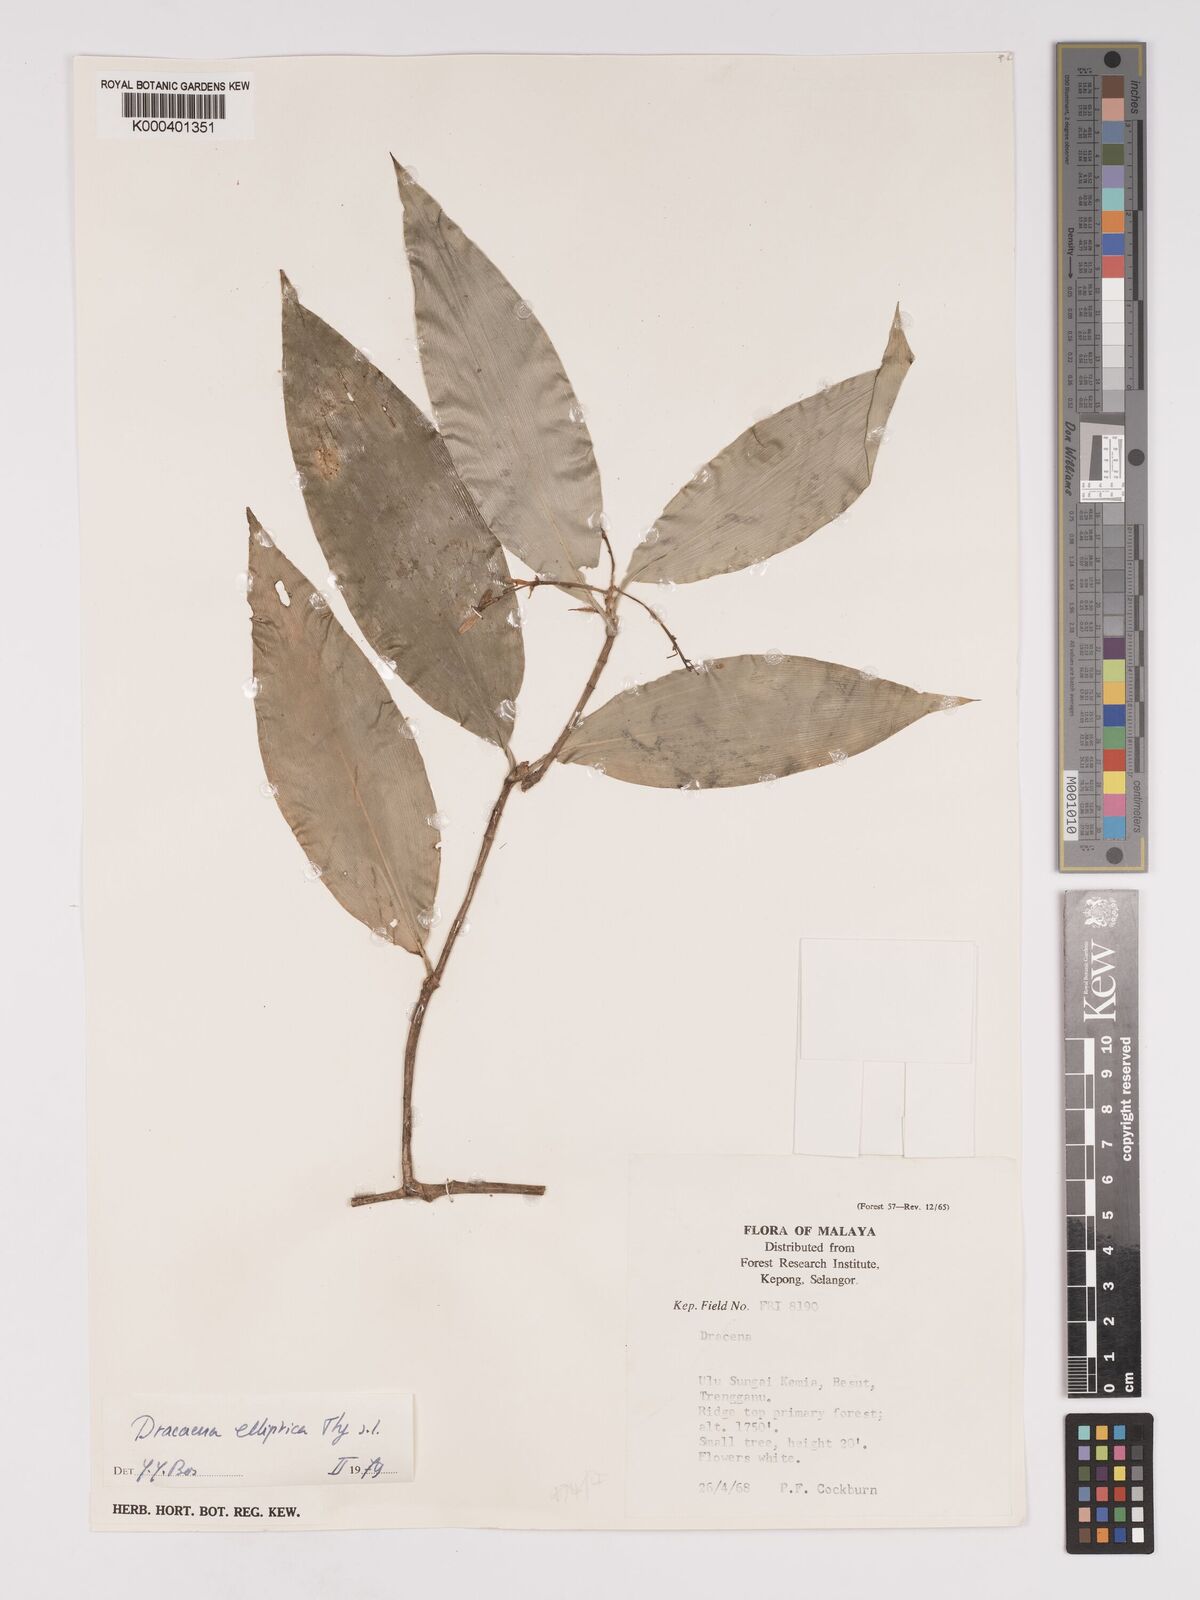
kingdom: Plantae
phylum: Tracheophyta
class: Liliopsida
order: Asparagales
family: Asparagaceae
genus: Dracaena
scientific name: Dracaena elliptica
